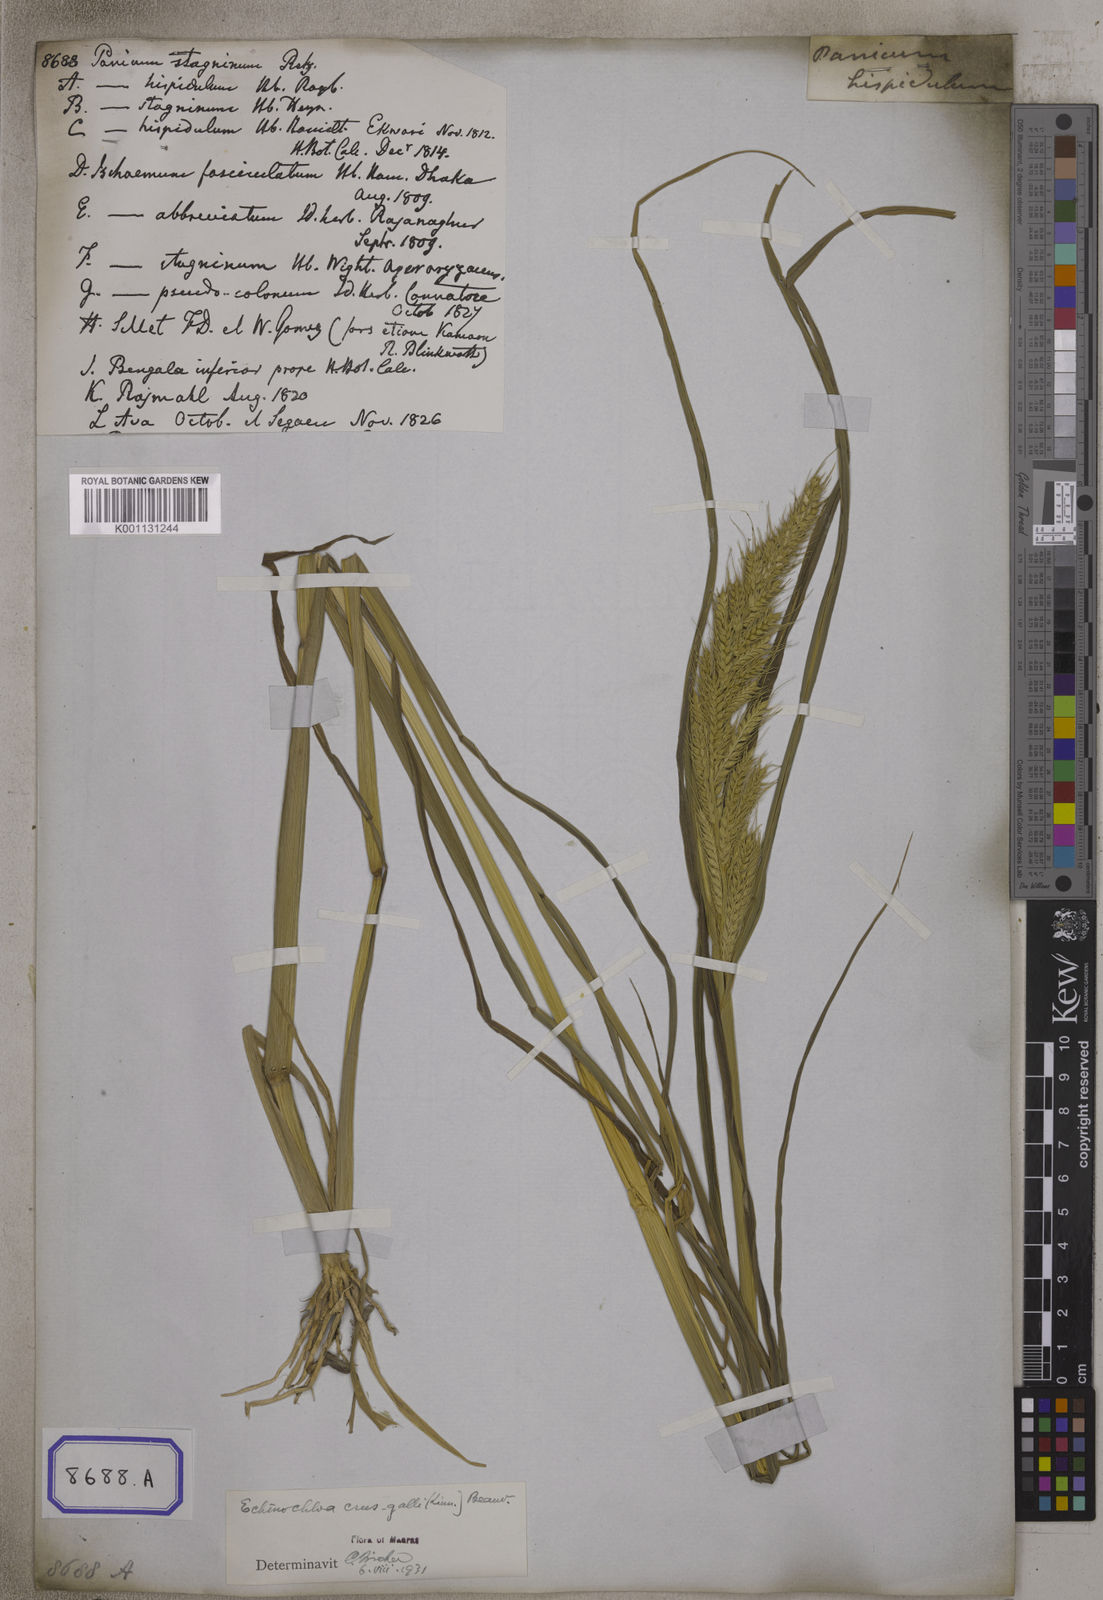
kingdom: Plantae
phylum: Tracheophyta
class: Liliopsida
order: Poales
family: Poaceae
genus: Echinochloa
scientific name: Echinochloa stagnina
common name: Burgu grass
